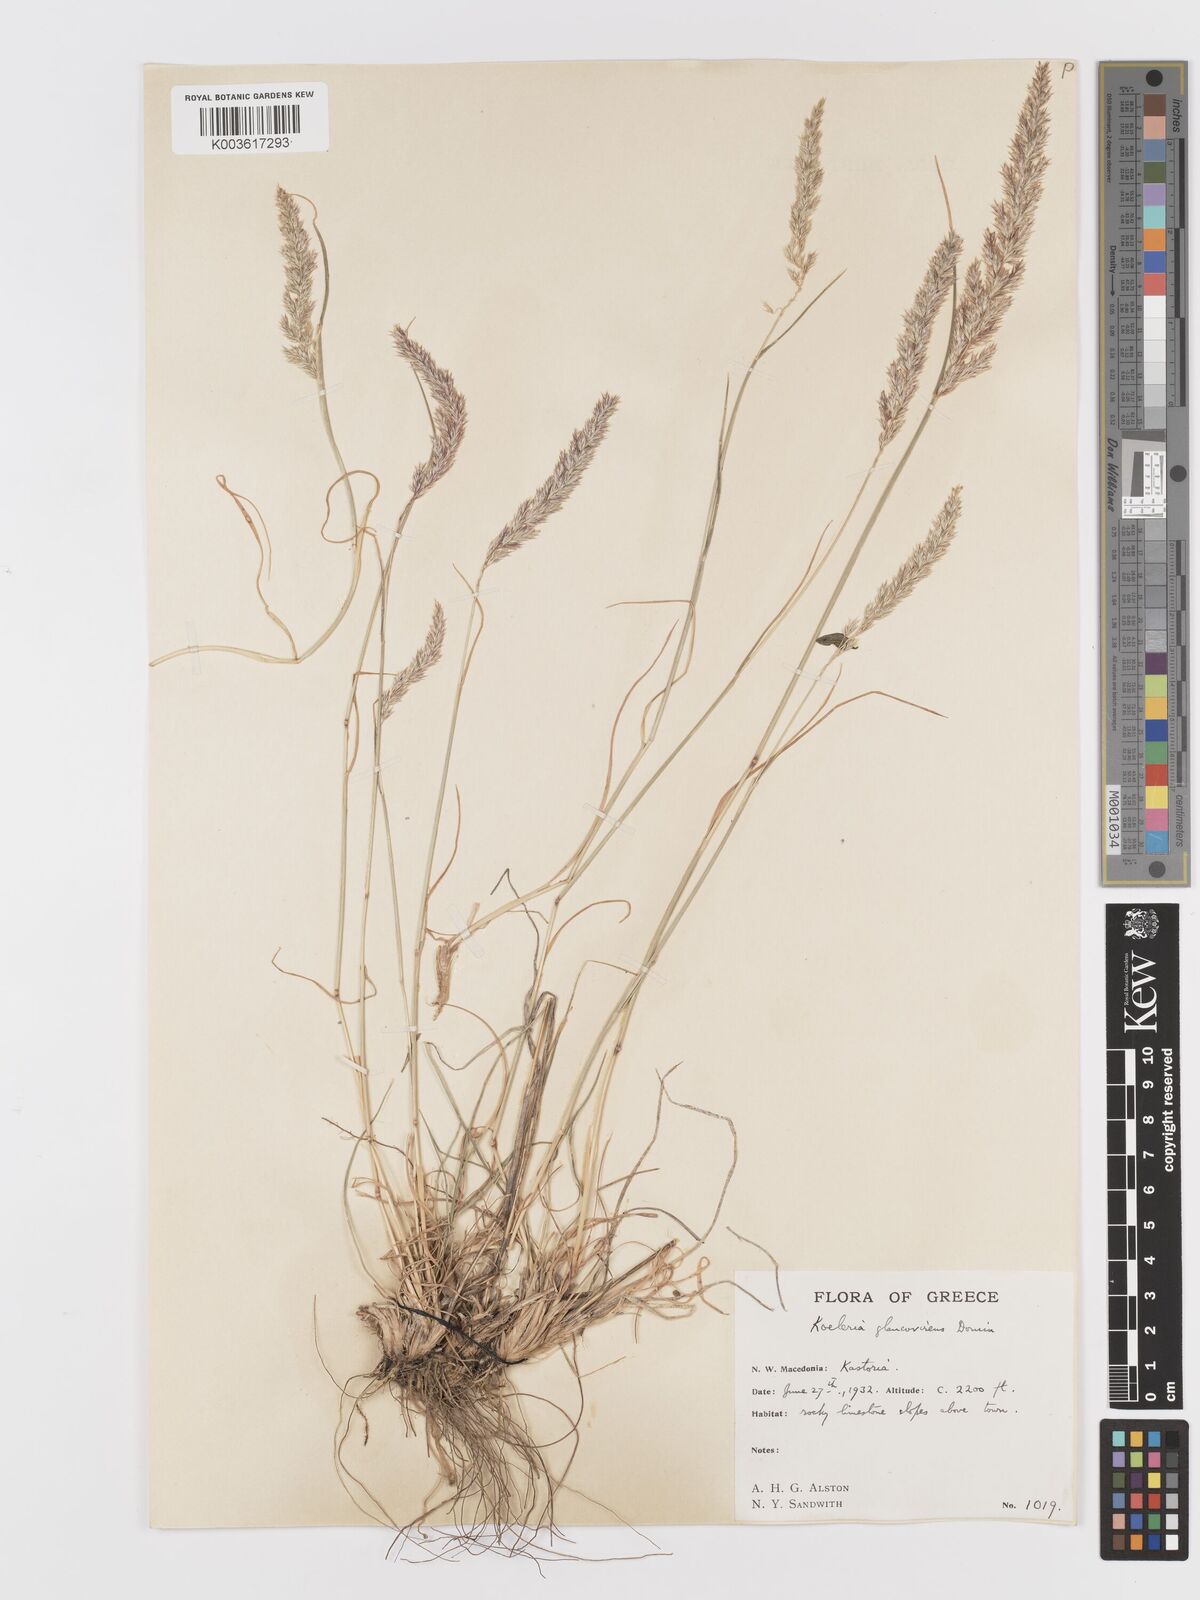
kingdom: Plantae
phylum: Tracheophyta
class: Liliopsida
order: Poales
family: Poaceae
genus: Koeleria
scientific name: Koeleria macrantha
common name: Crested hair-grass
